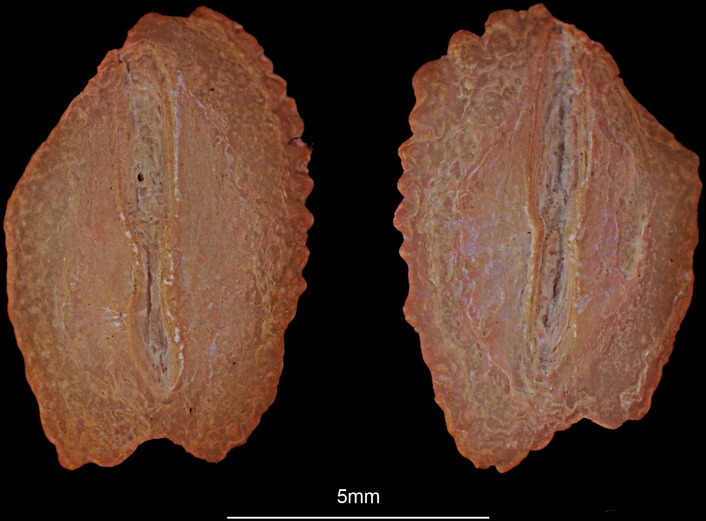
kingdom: Animalia
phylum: Chordata
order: Pleuronectiformes
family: Scophthalmidae
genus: Scophthalmus
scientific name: Scophthalmus maximus
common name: Turbot
